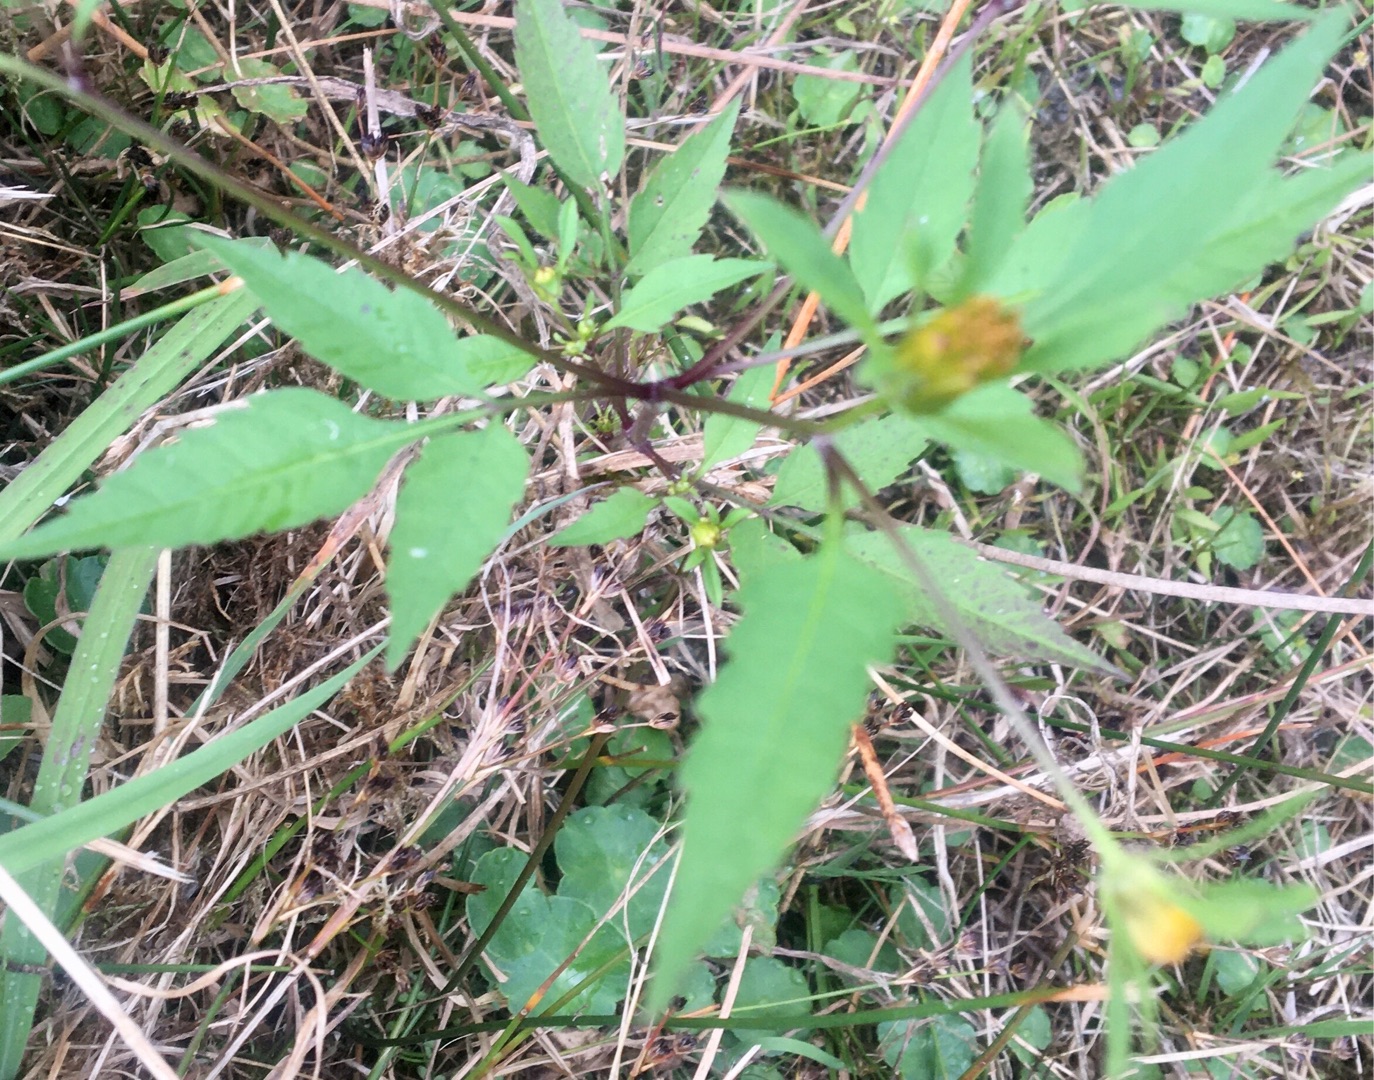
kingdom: Plantae
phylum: Tracheophyta
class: Magnoliopsida
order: Asterales
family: Asteraceae
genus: Bidens
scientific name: Bidens frondosa
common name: Sortfrugtet brøndsel
